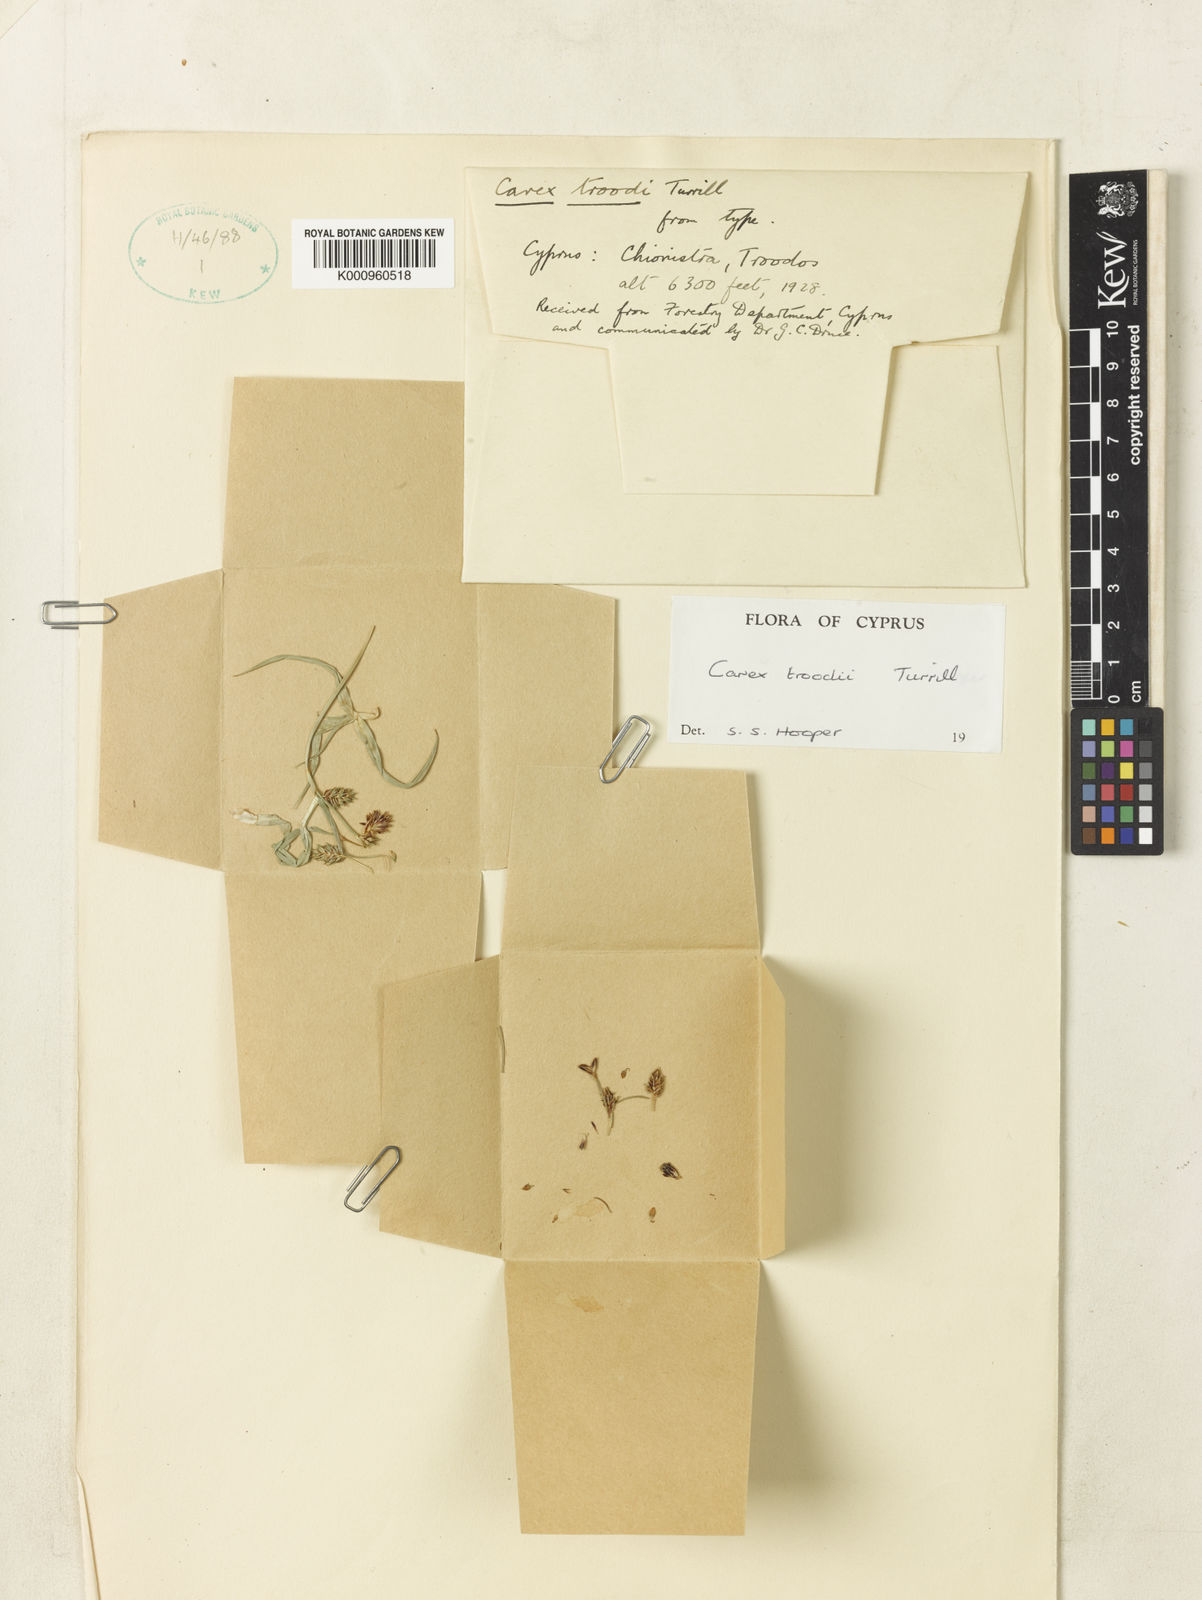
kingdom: Plantae
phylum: Tracheophyta
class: Liliopsida
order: Poales
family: Cyperaceae
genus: Carex
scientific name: Carex troodi
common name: Troodos mount sedge
